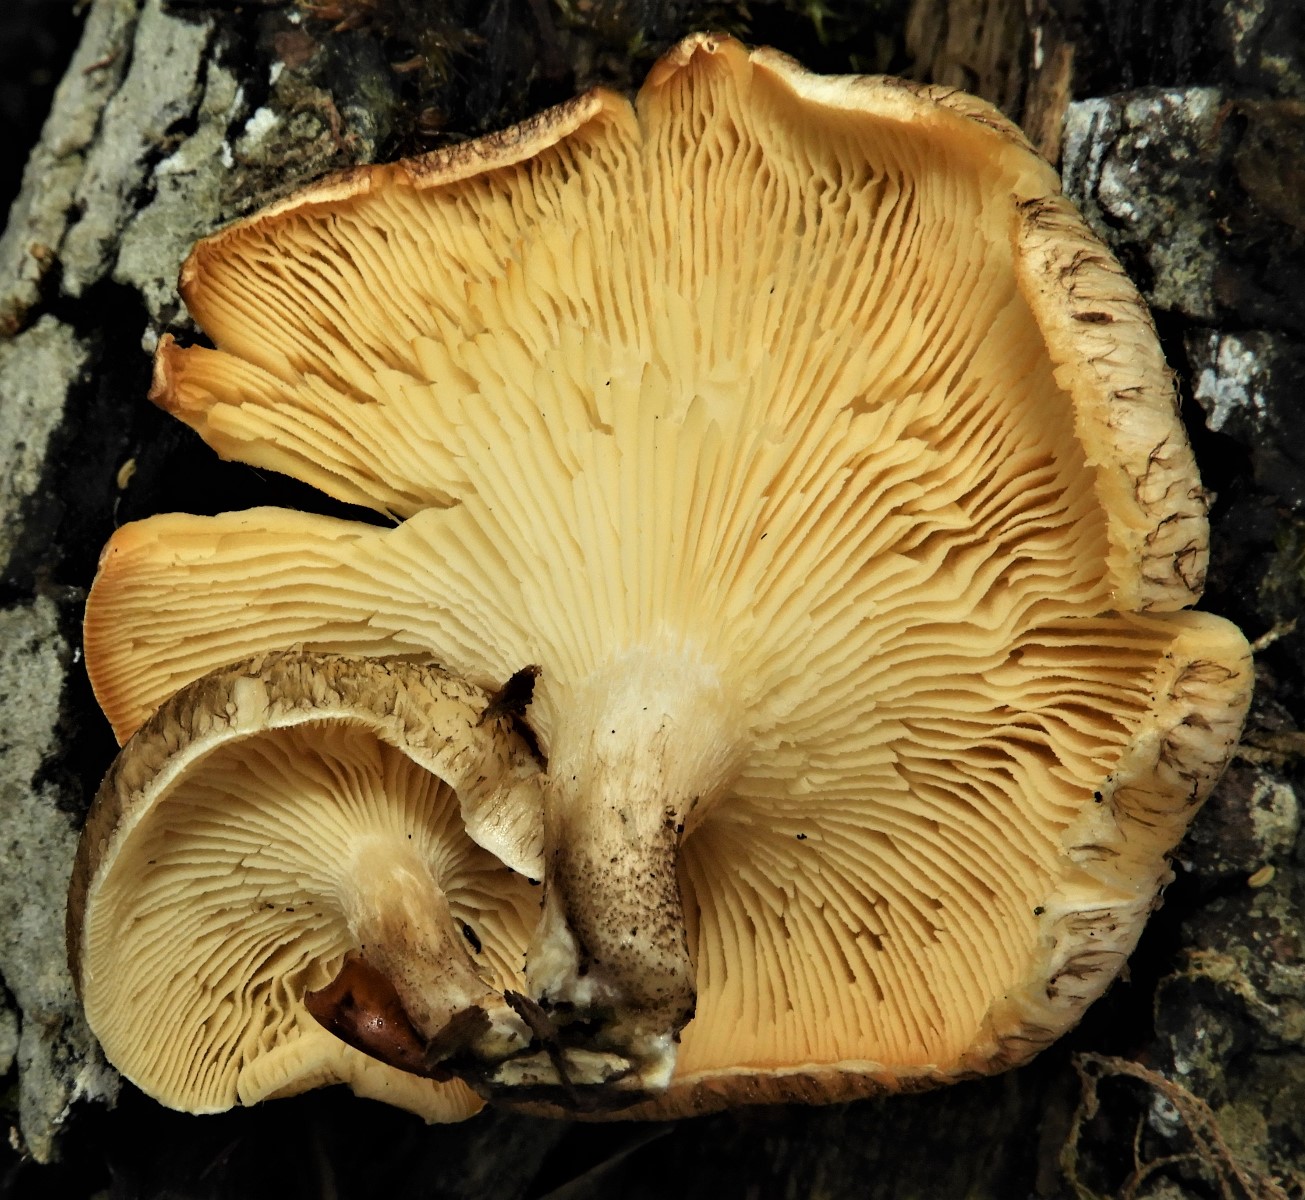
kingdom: Fungi
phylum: Basidiomycota
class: Agaricomycetes
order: Polyporales
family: Polyporaceae
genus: Lentinus
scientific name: Lentinus tigrinus
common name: tigerhat
